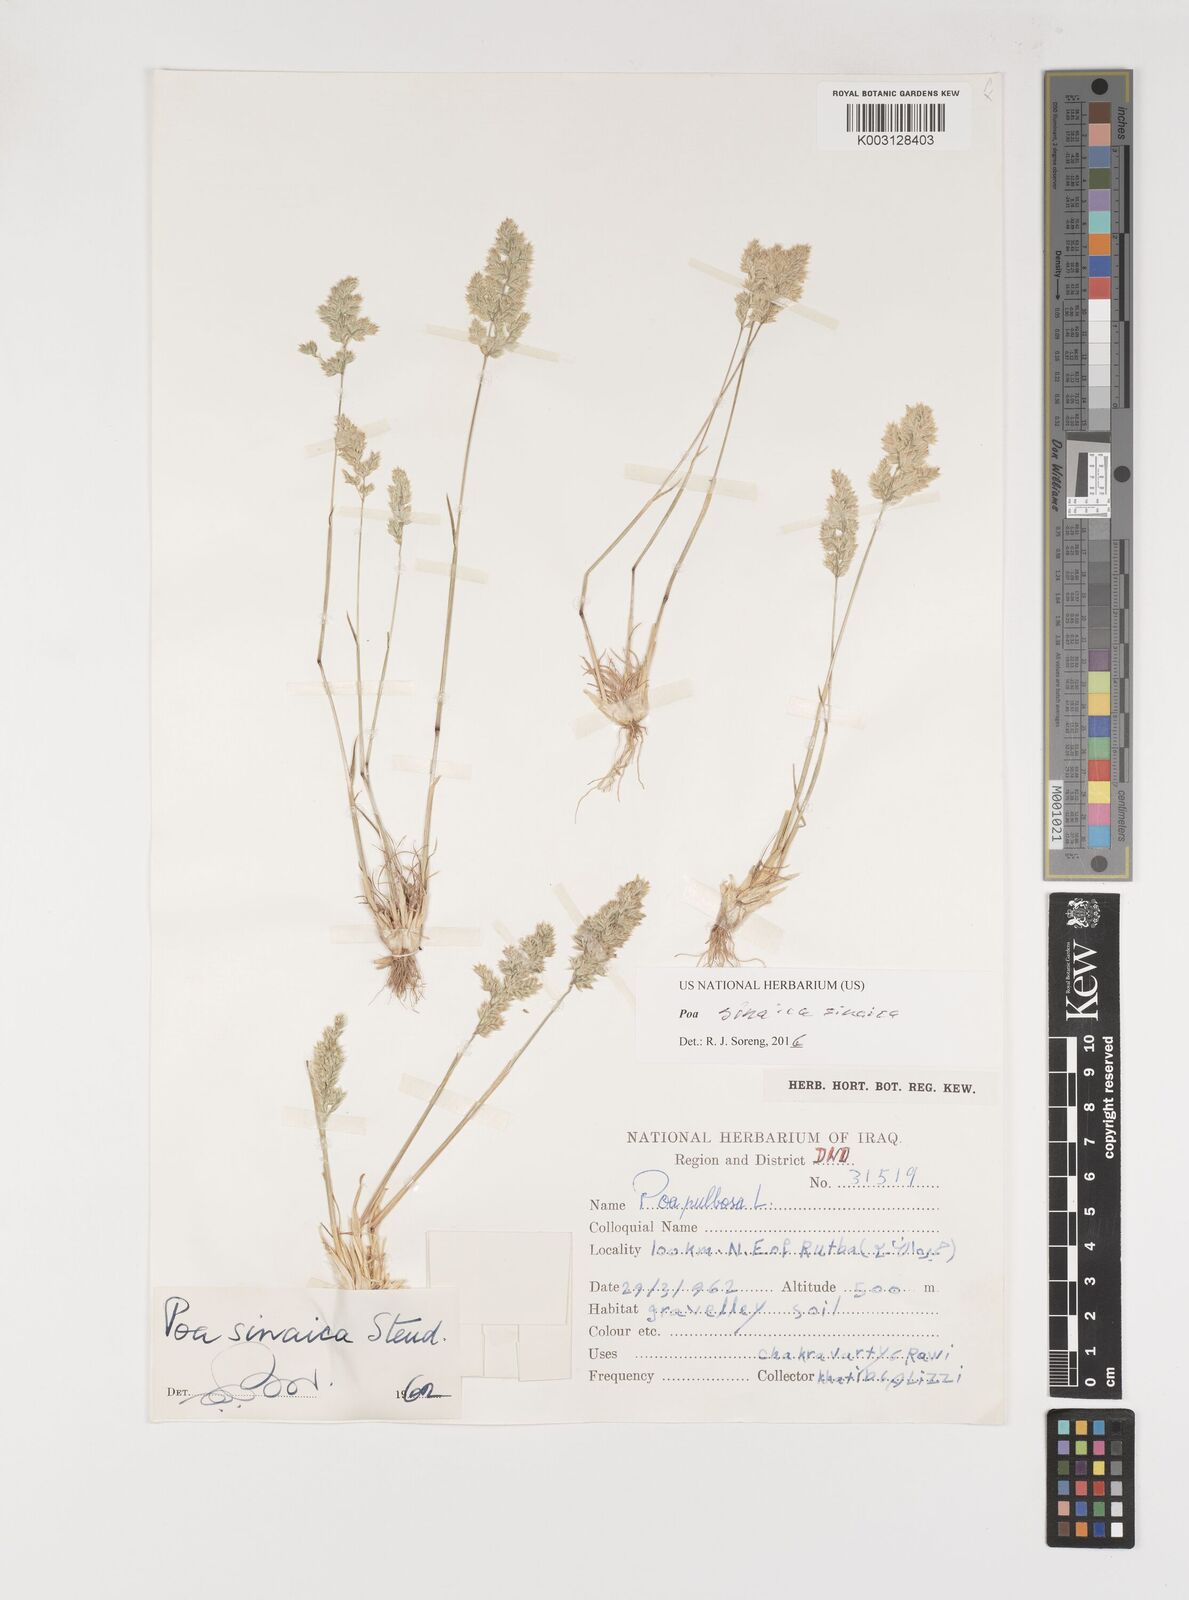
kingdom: Plantae
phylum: Tracheophyta
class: Liliopsida
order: Poales
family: Poaceae
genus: Poa
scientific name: Poa sinaica
